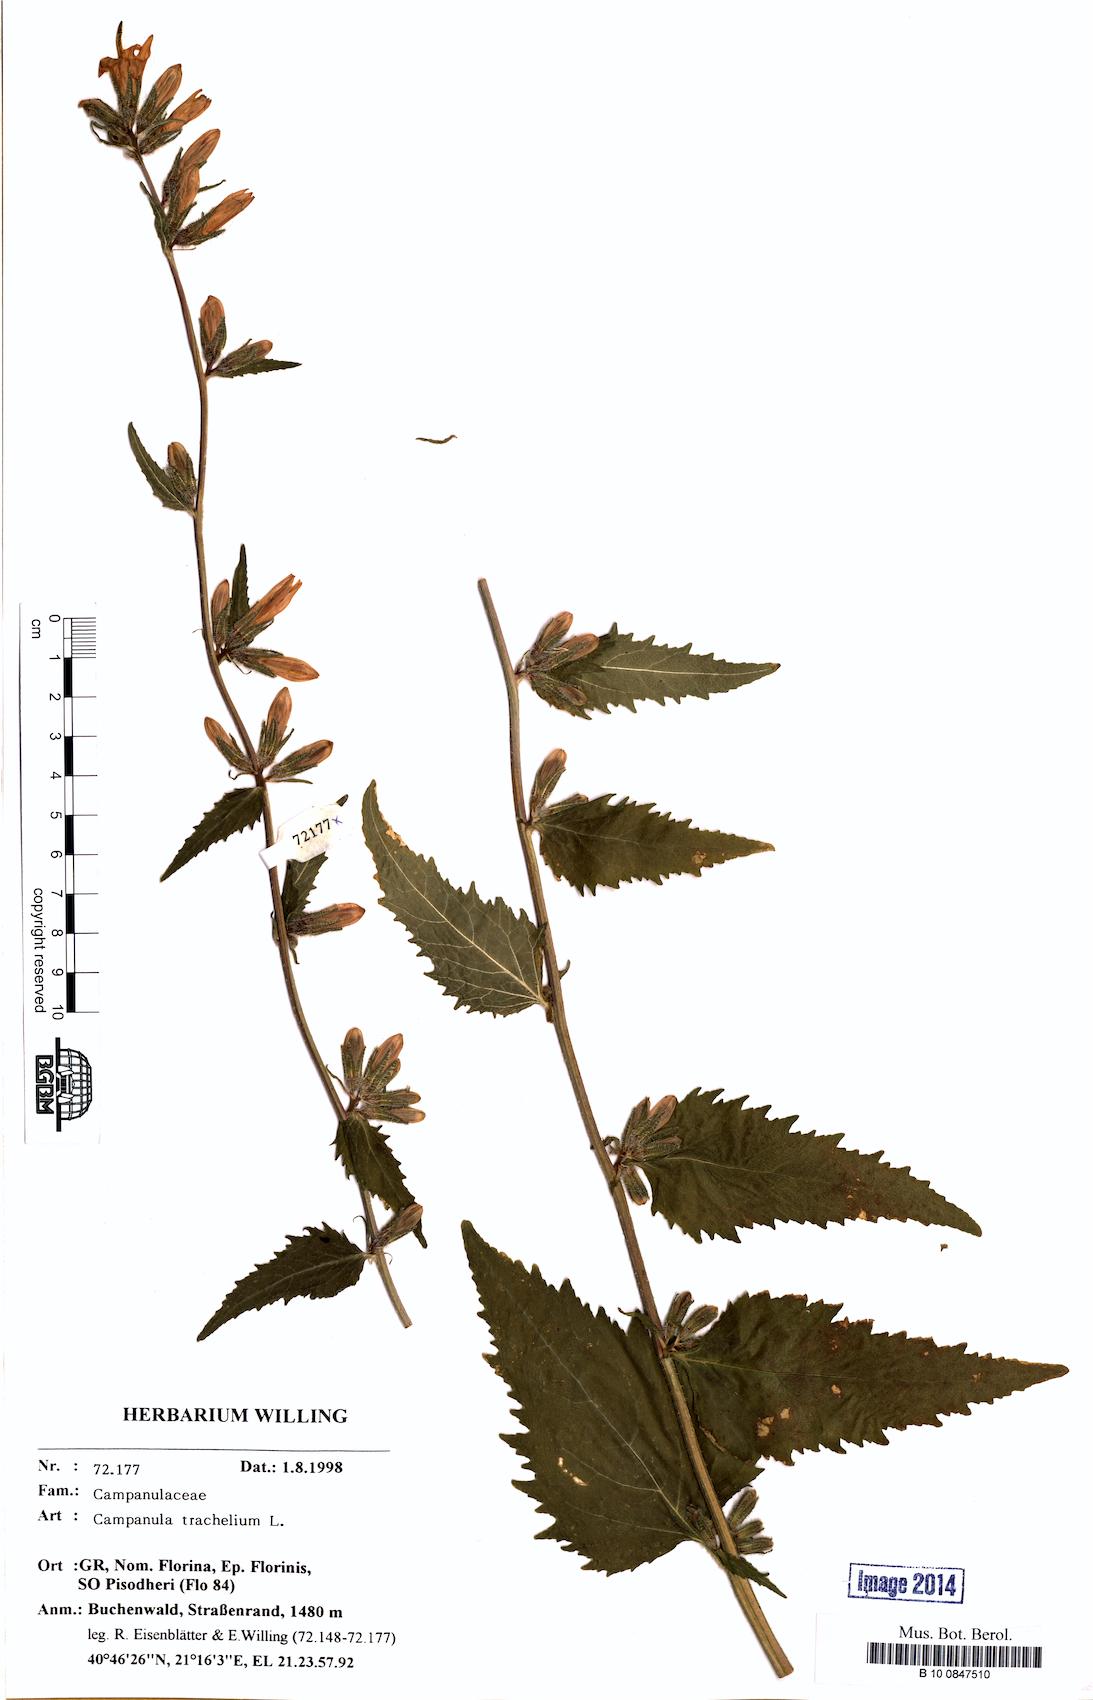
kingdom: Plantae
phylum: Tracheophyta
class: Magnoliopsida
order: Asterales
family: Campanulaceae
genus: Campanula
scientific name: Campanula trachelium
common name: Nettle-leaved bellflower
